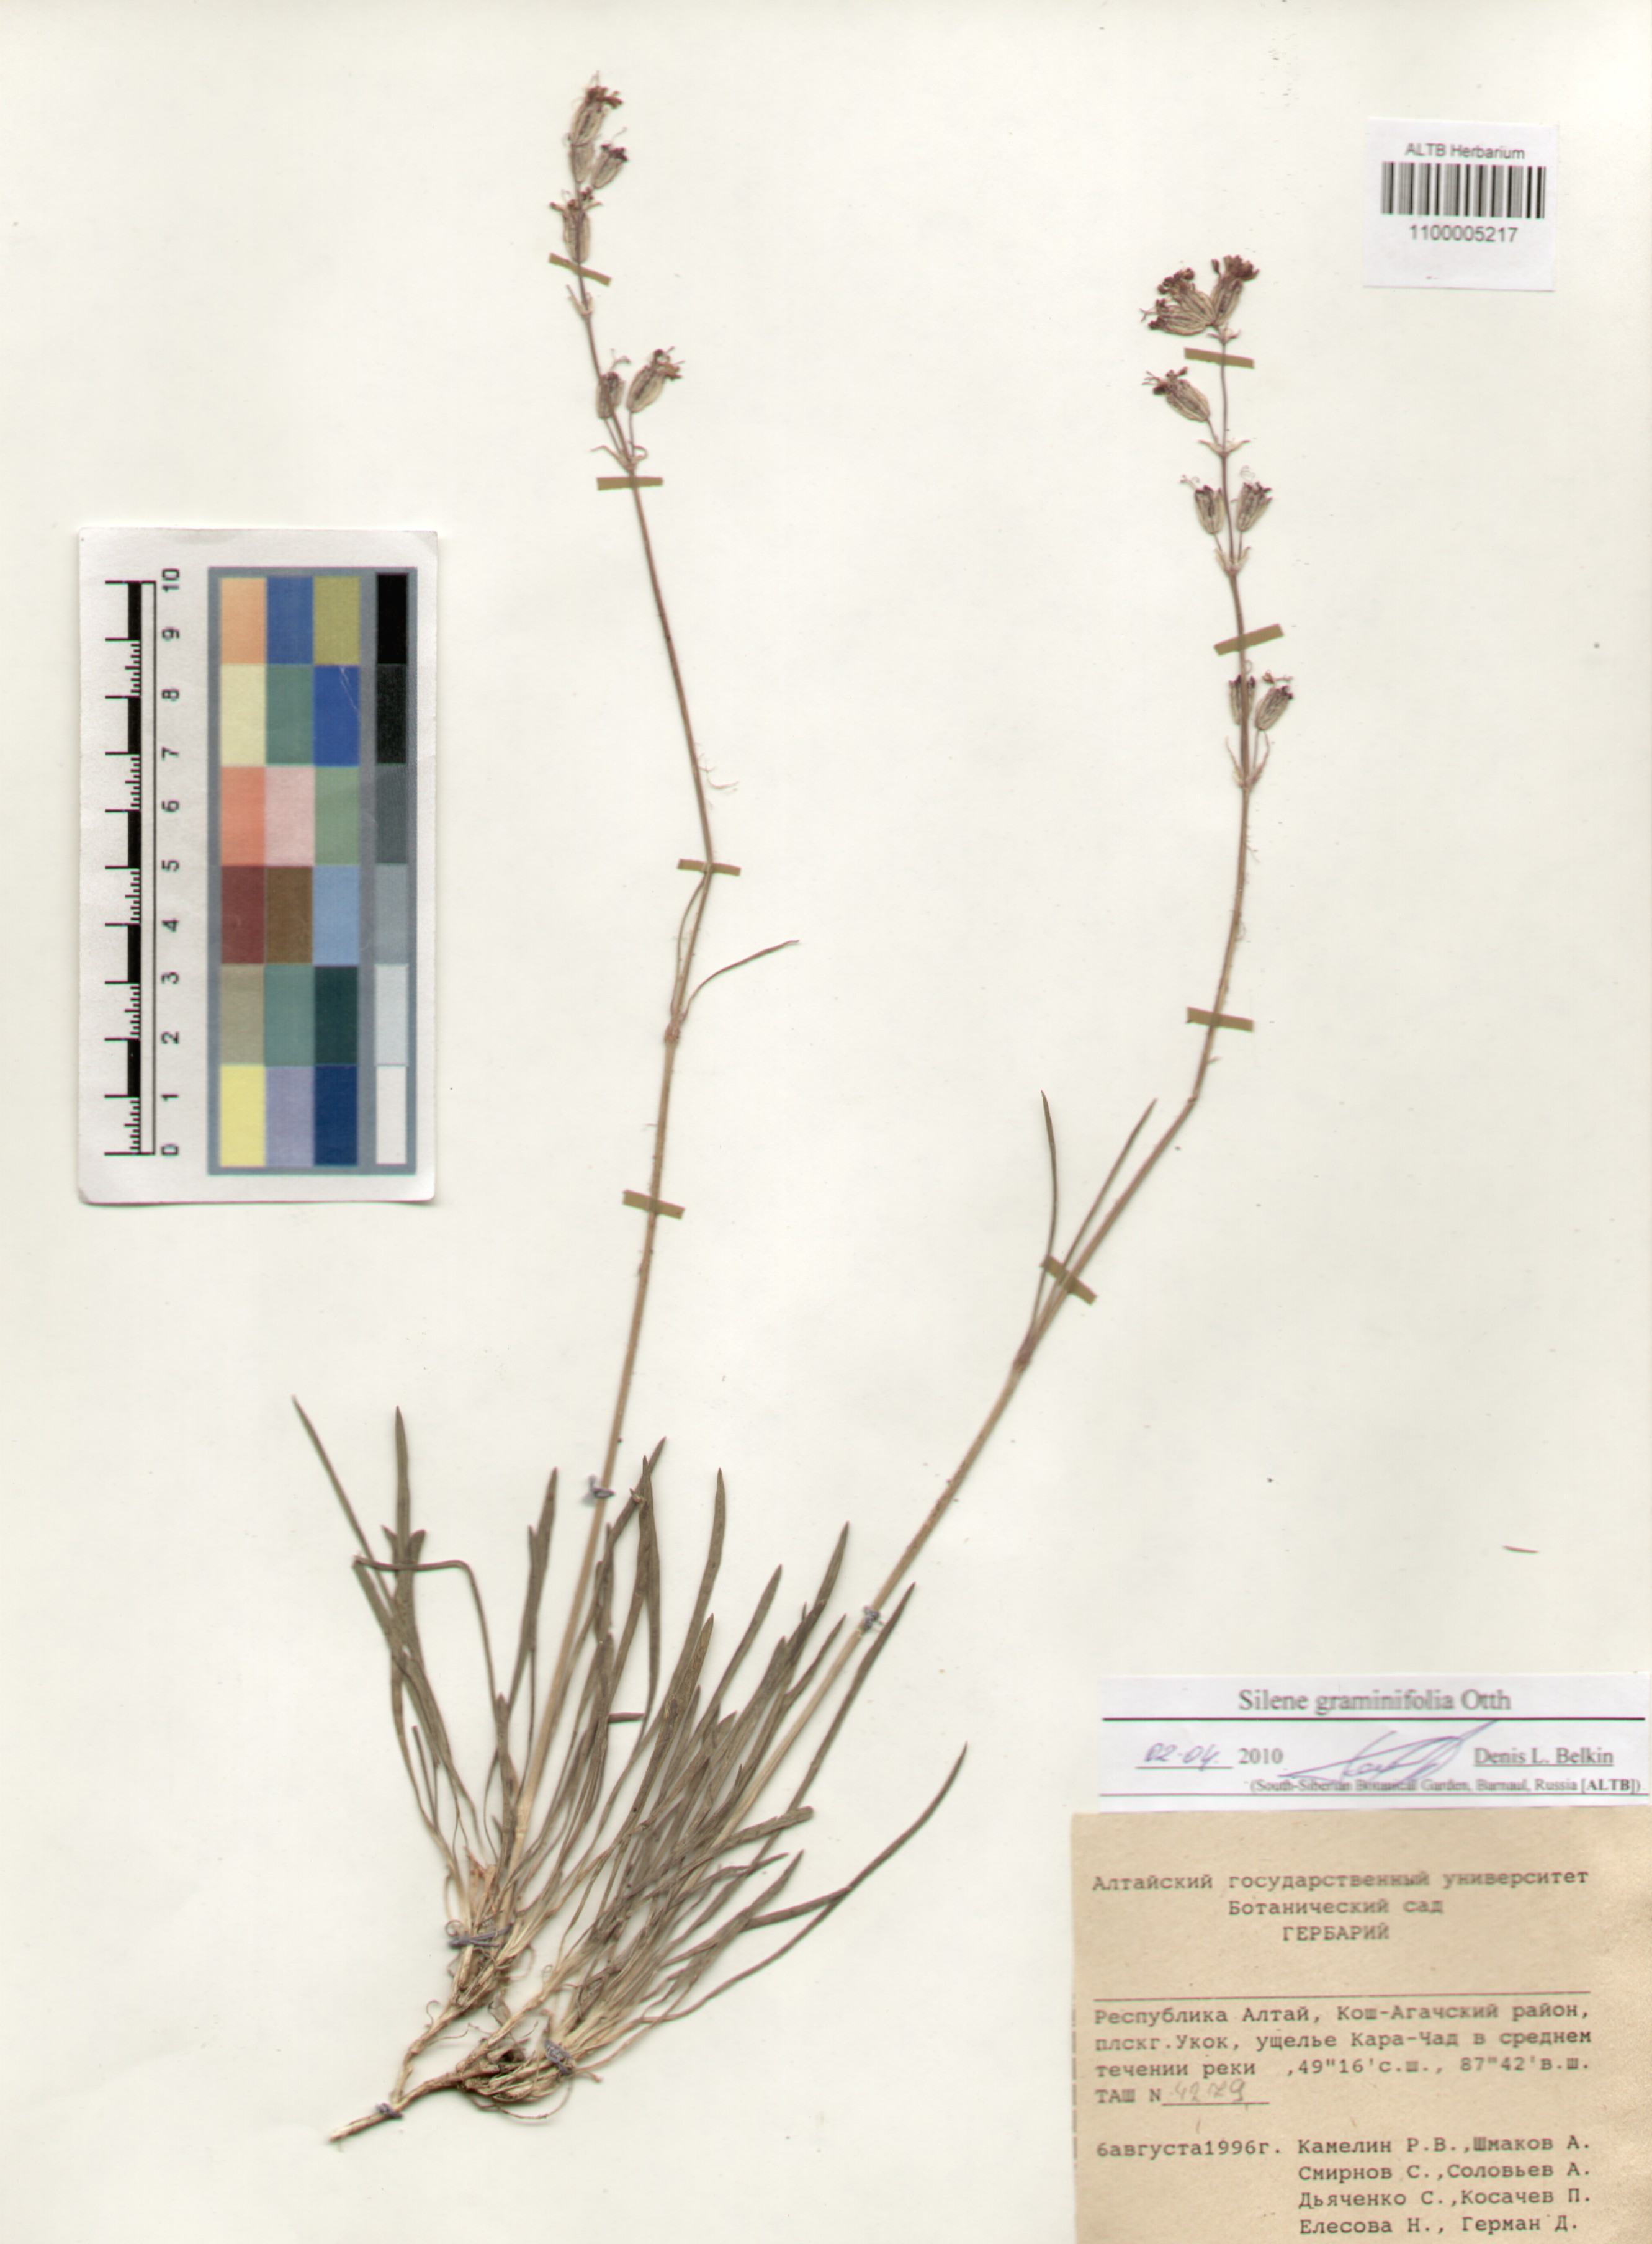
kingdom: Plantae
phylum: Tracheophyta
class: Magnoliopsida
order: Caryophyllales
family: Caryophyllaceae
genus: Silene
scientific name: Silene graminifolia
